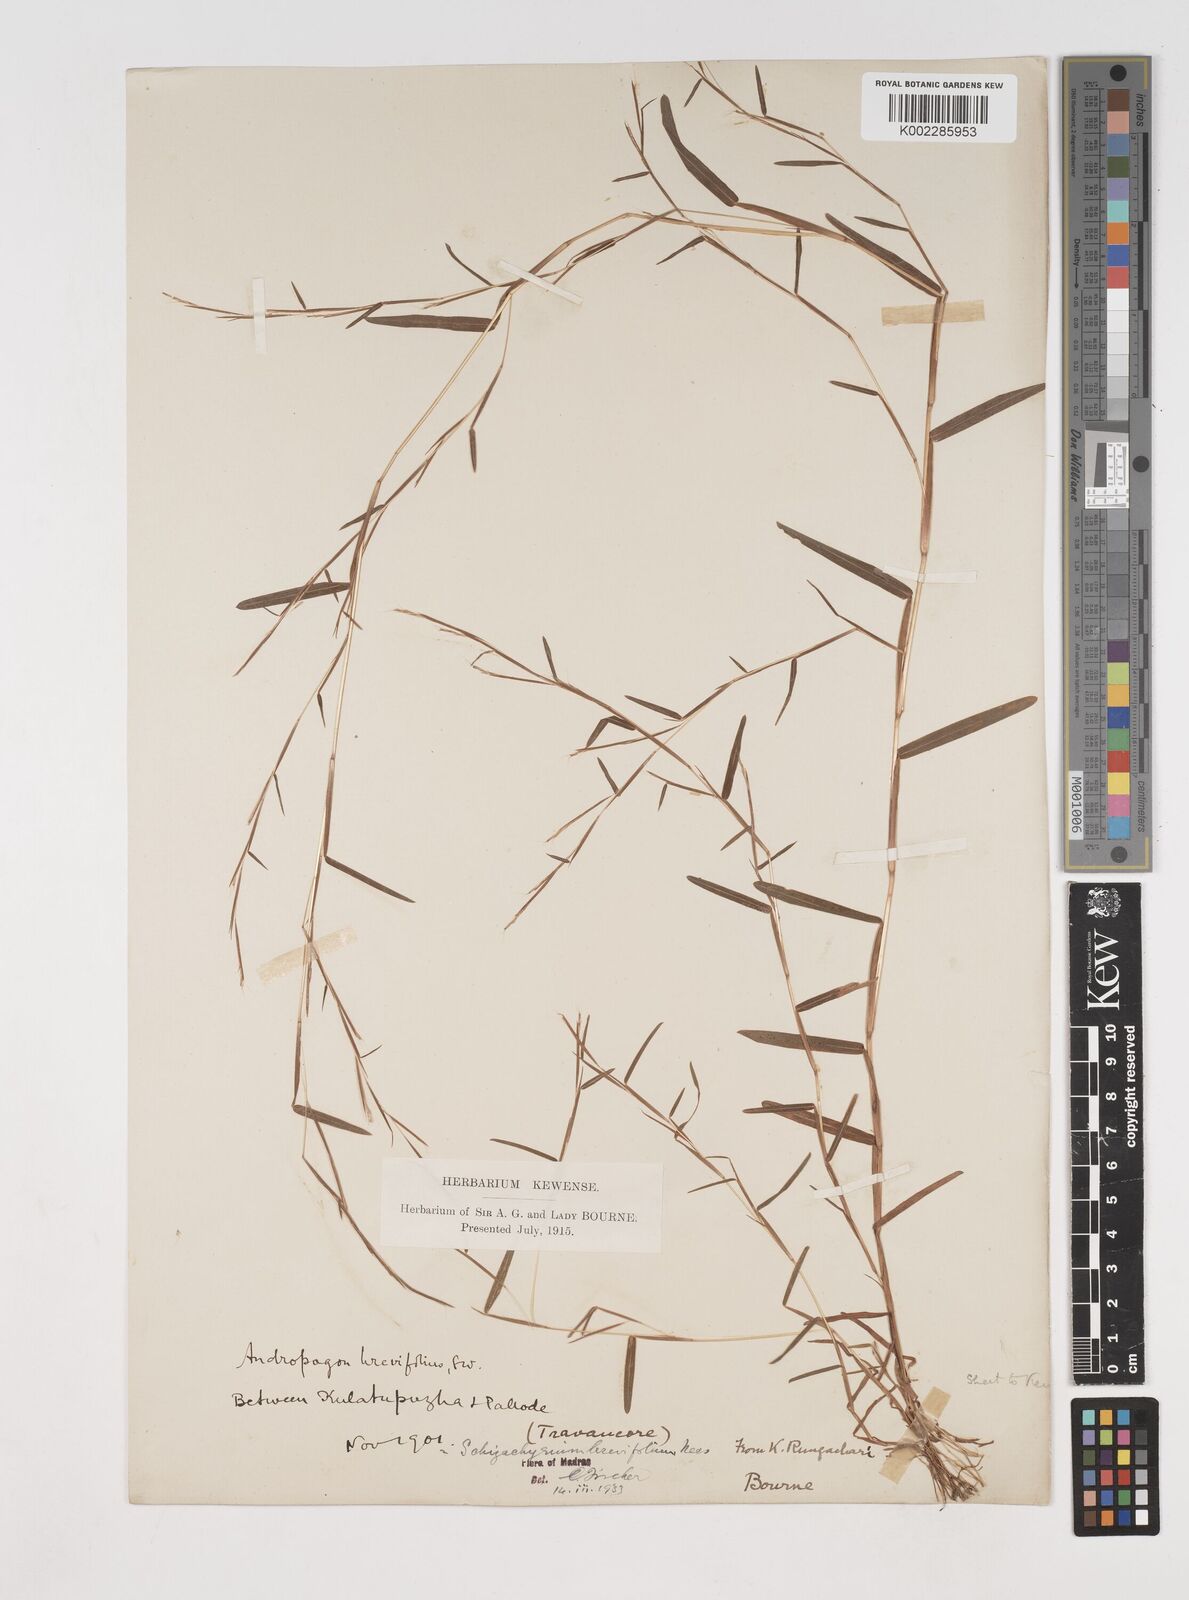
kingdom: Plantae
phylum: Tracheophyta
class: Liliopsida
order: Poales
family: Poaceae
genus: Schizachyrium
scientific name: Schizachyrium brevifolium
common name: Serillo dulce
